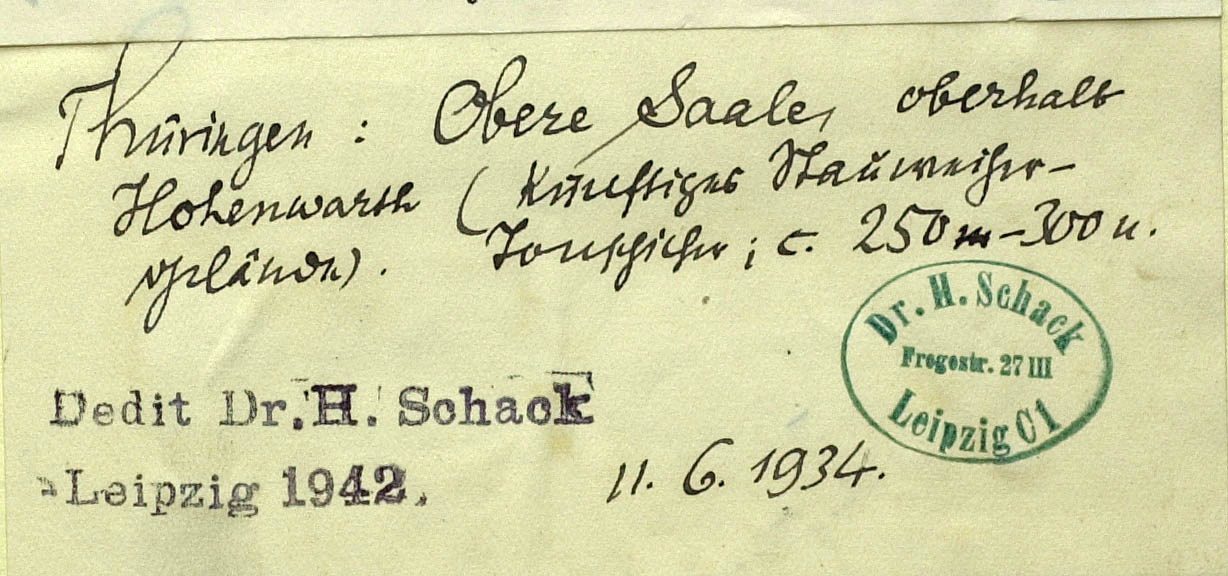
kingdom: Plantae
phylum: Tracheophyta
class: Magnoliopsida
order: Asterales
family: Asteraceae
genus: Hieracium
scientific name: Hieracium lachenalii
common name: Common hawkweed
